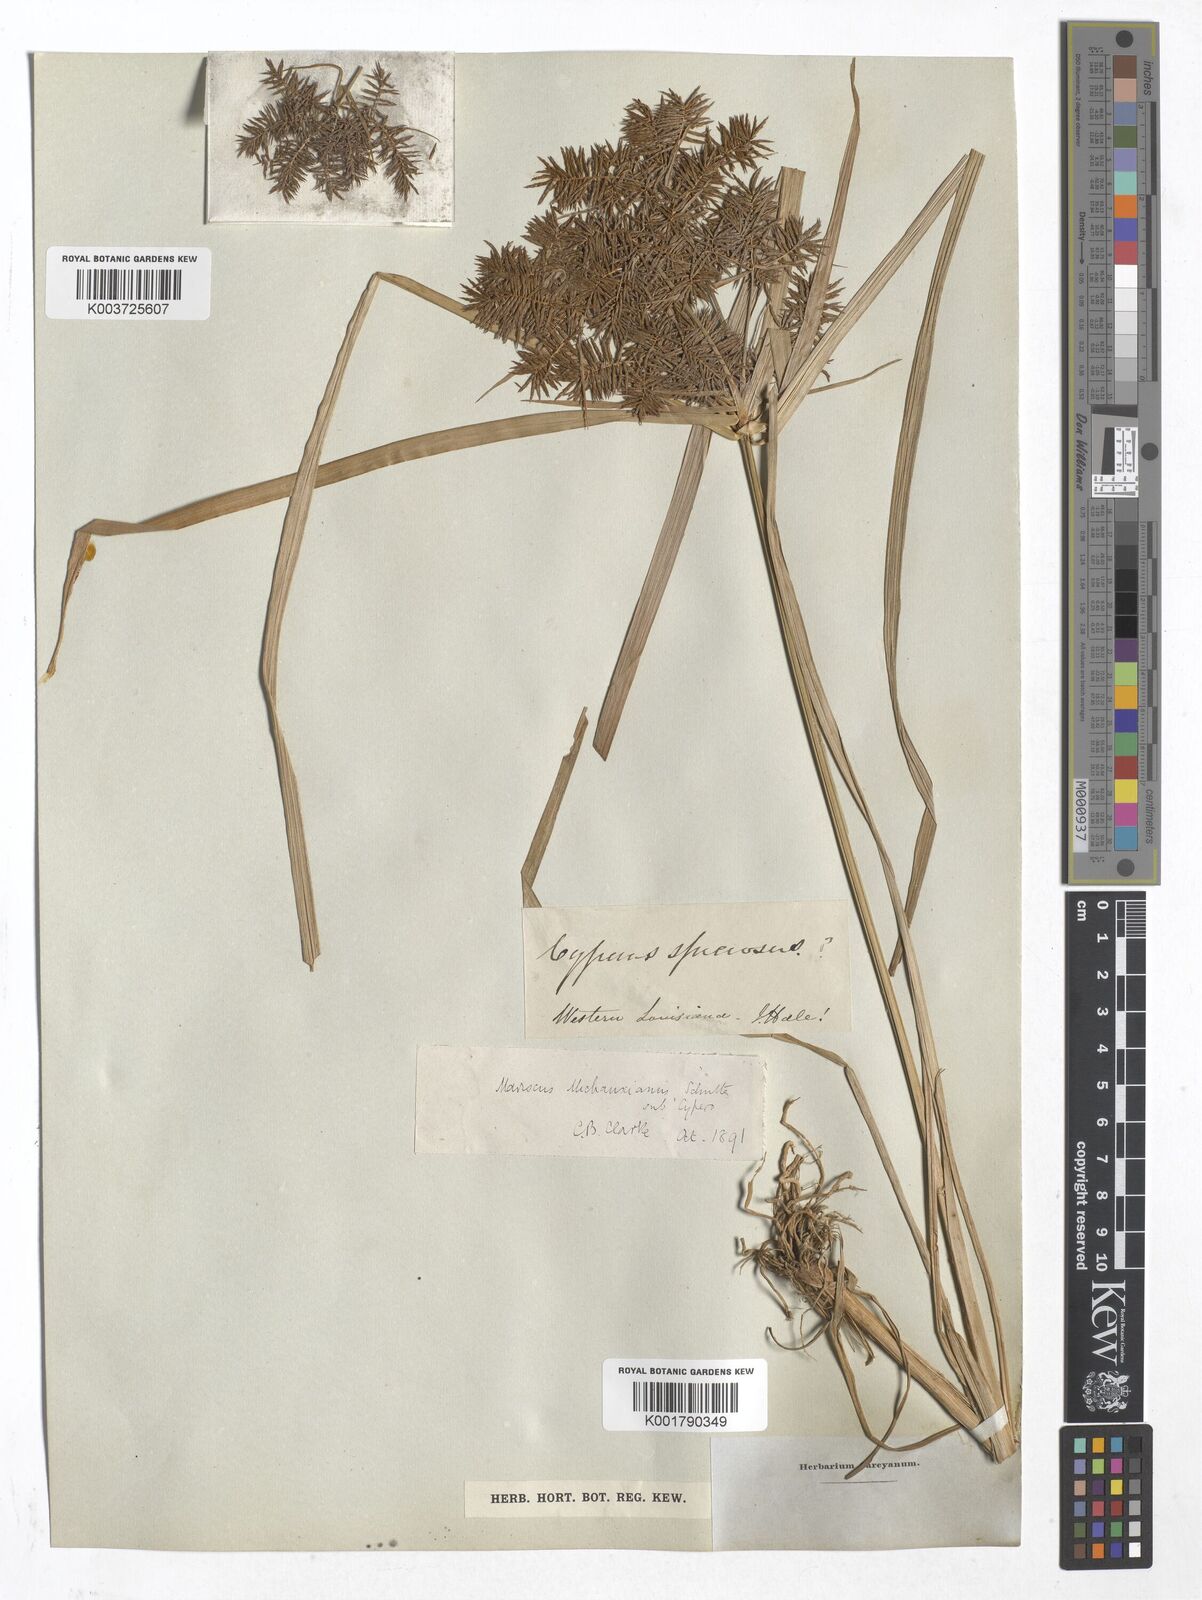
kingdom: Plantae
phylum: Tracheophyta
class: Liliopsida
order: Poales
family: Cyperaceae
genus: Mariscus
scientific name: Mariscus
